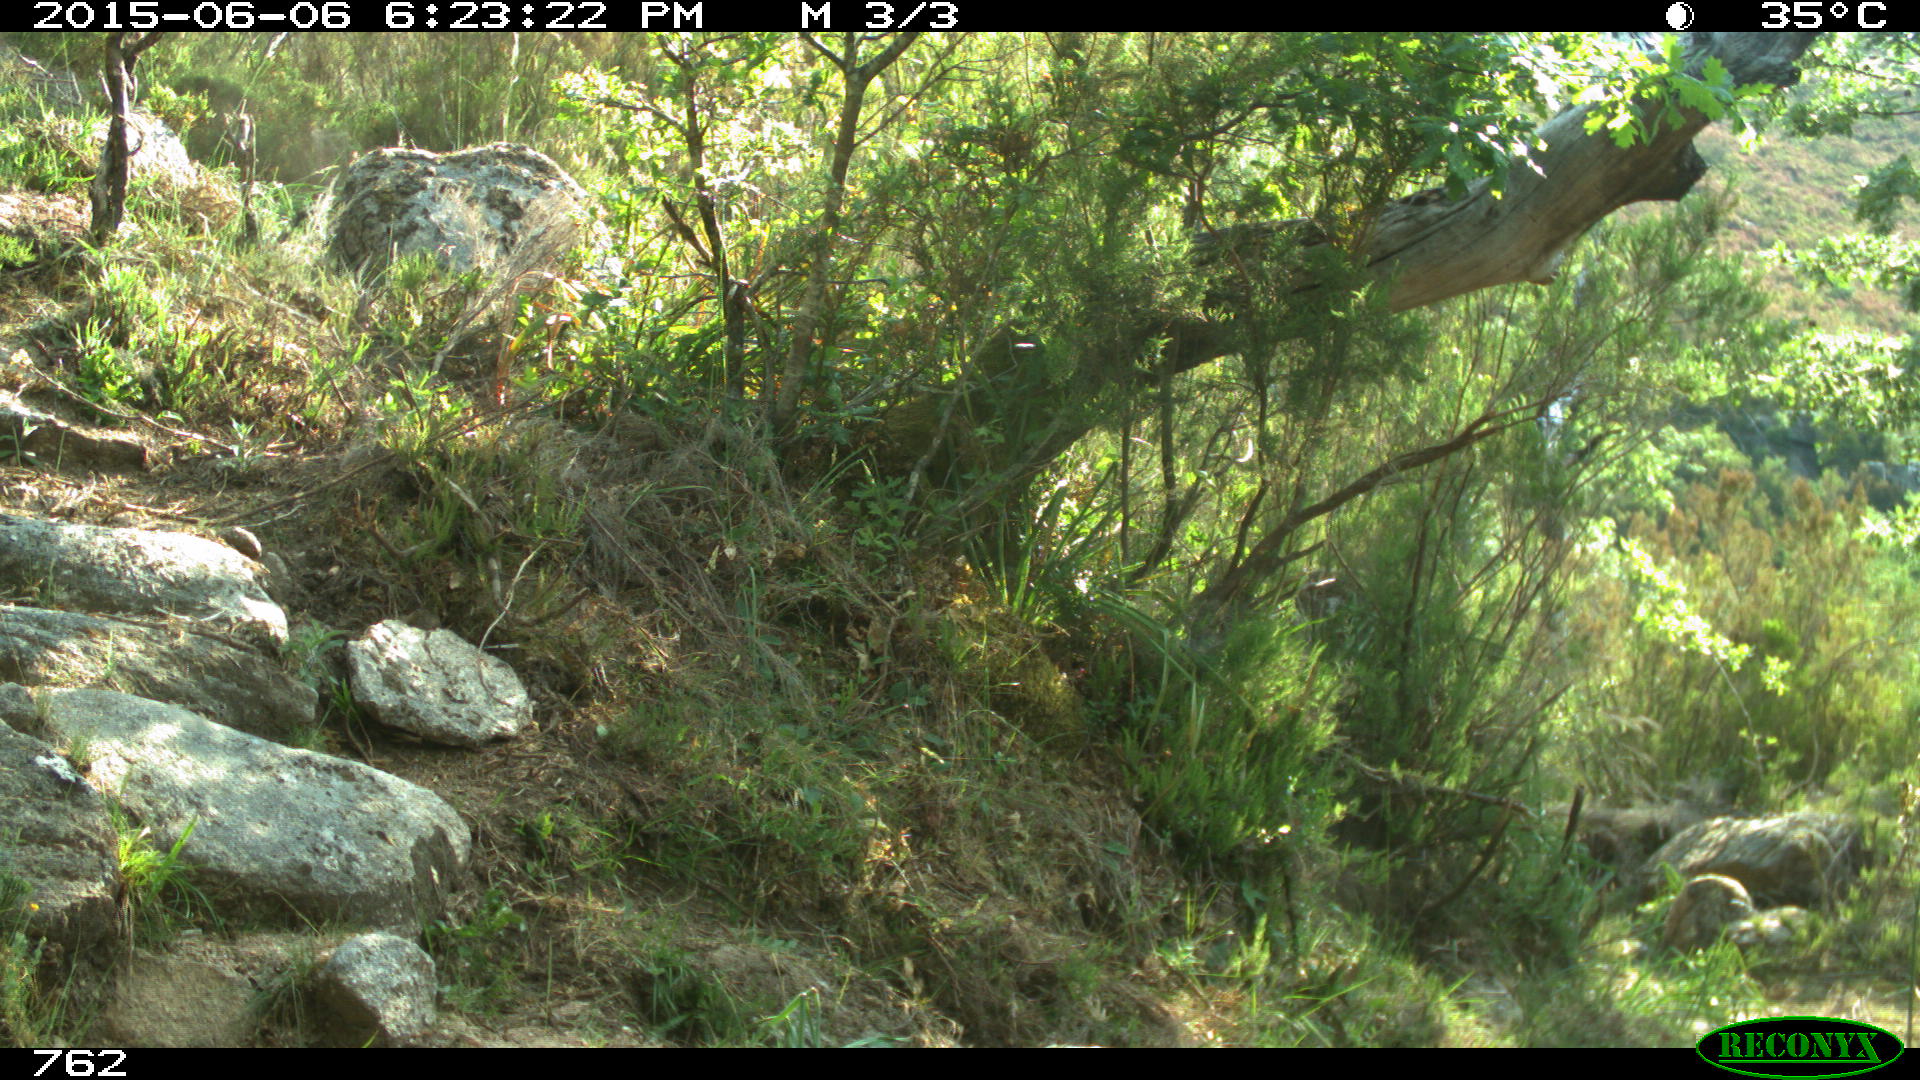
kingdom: Animalia
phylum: Chordata
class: Mammalia
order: Artiodactyla
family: Bovidae
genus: Bos
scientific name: Bos taurus
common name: Domesticated cattle
